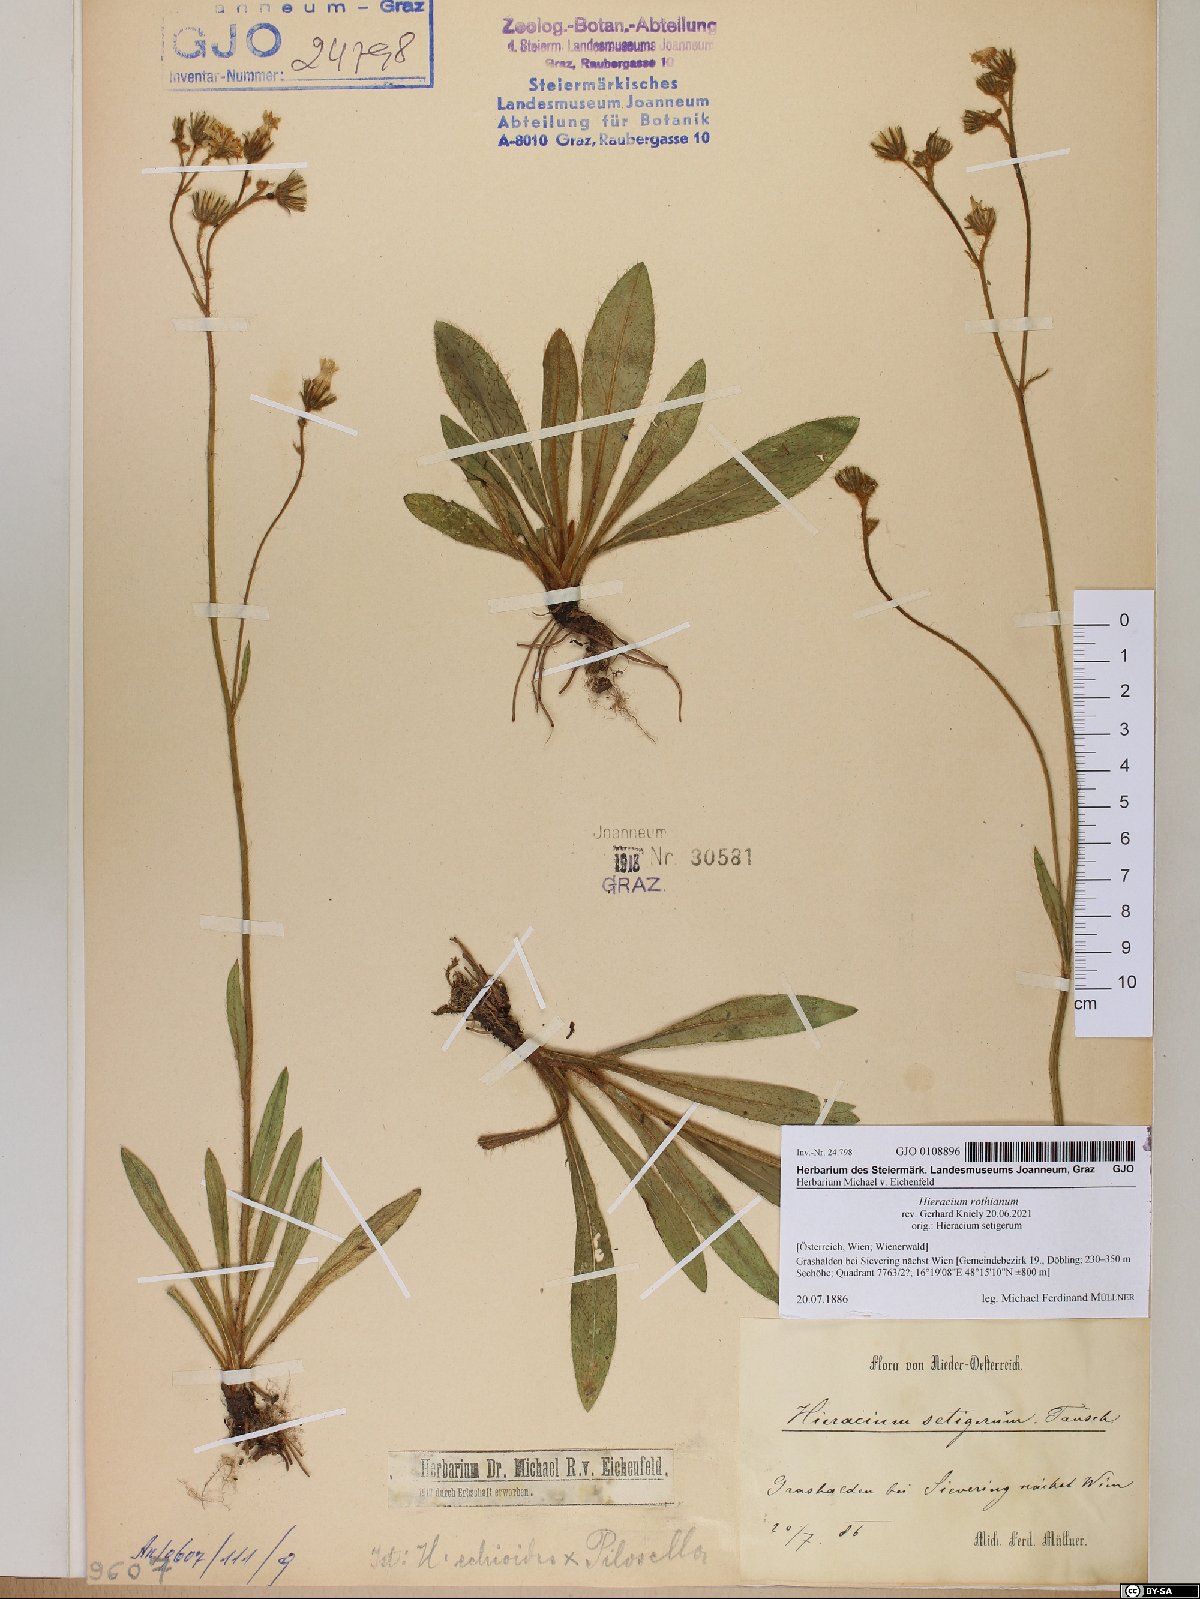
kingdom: Plantae
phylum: Tracheophyta
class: Magnoliopsida
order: Asterales
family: Asteraceae
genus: Pilosella
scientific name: Pilosella rothiana
